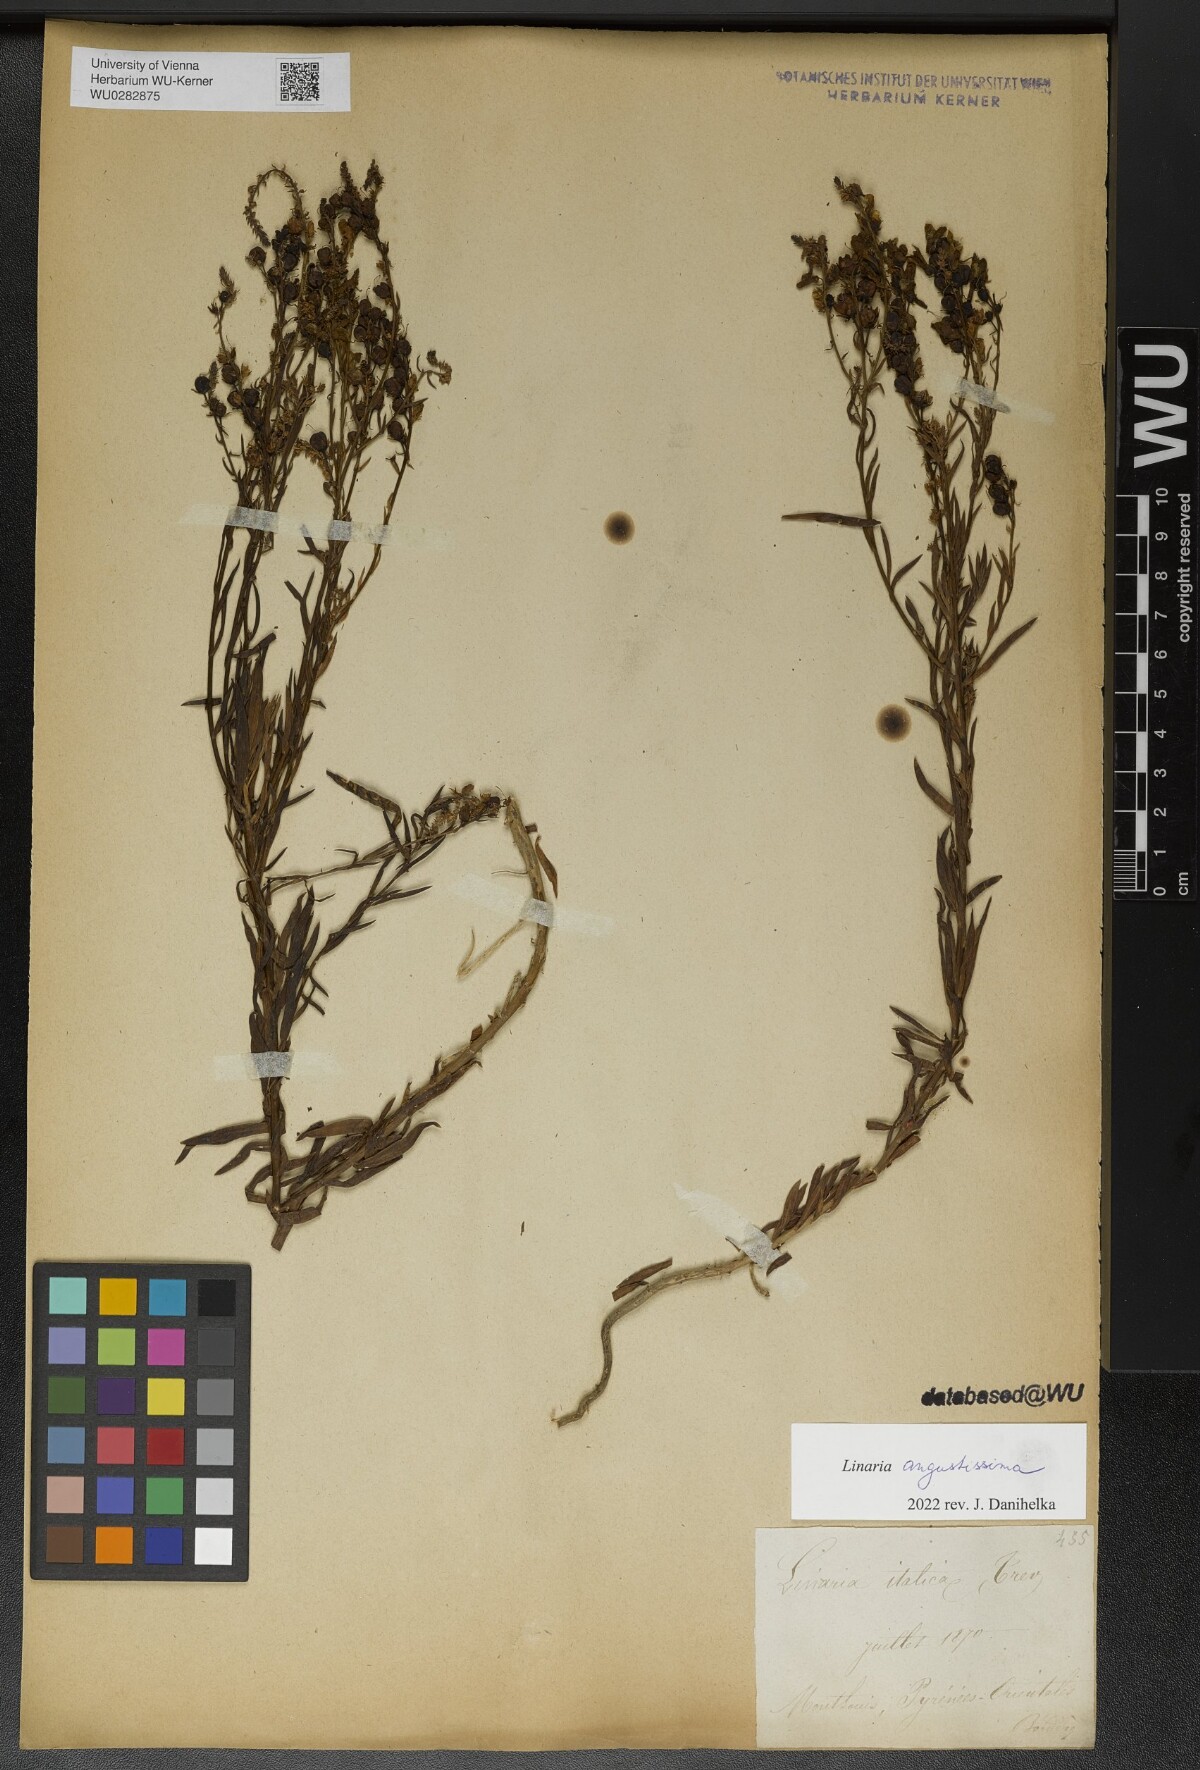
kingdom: Plantae
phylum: Tracheophyta
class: Magnoliopsida
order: Lamiales
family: Plantaginaceae
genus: Linaria
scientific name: Linaria angustissima
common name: Italian toadflax
